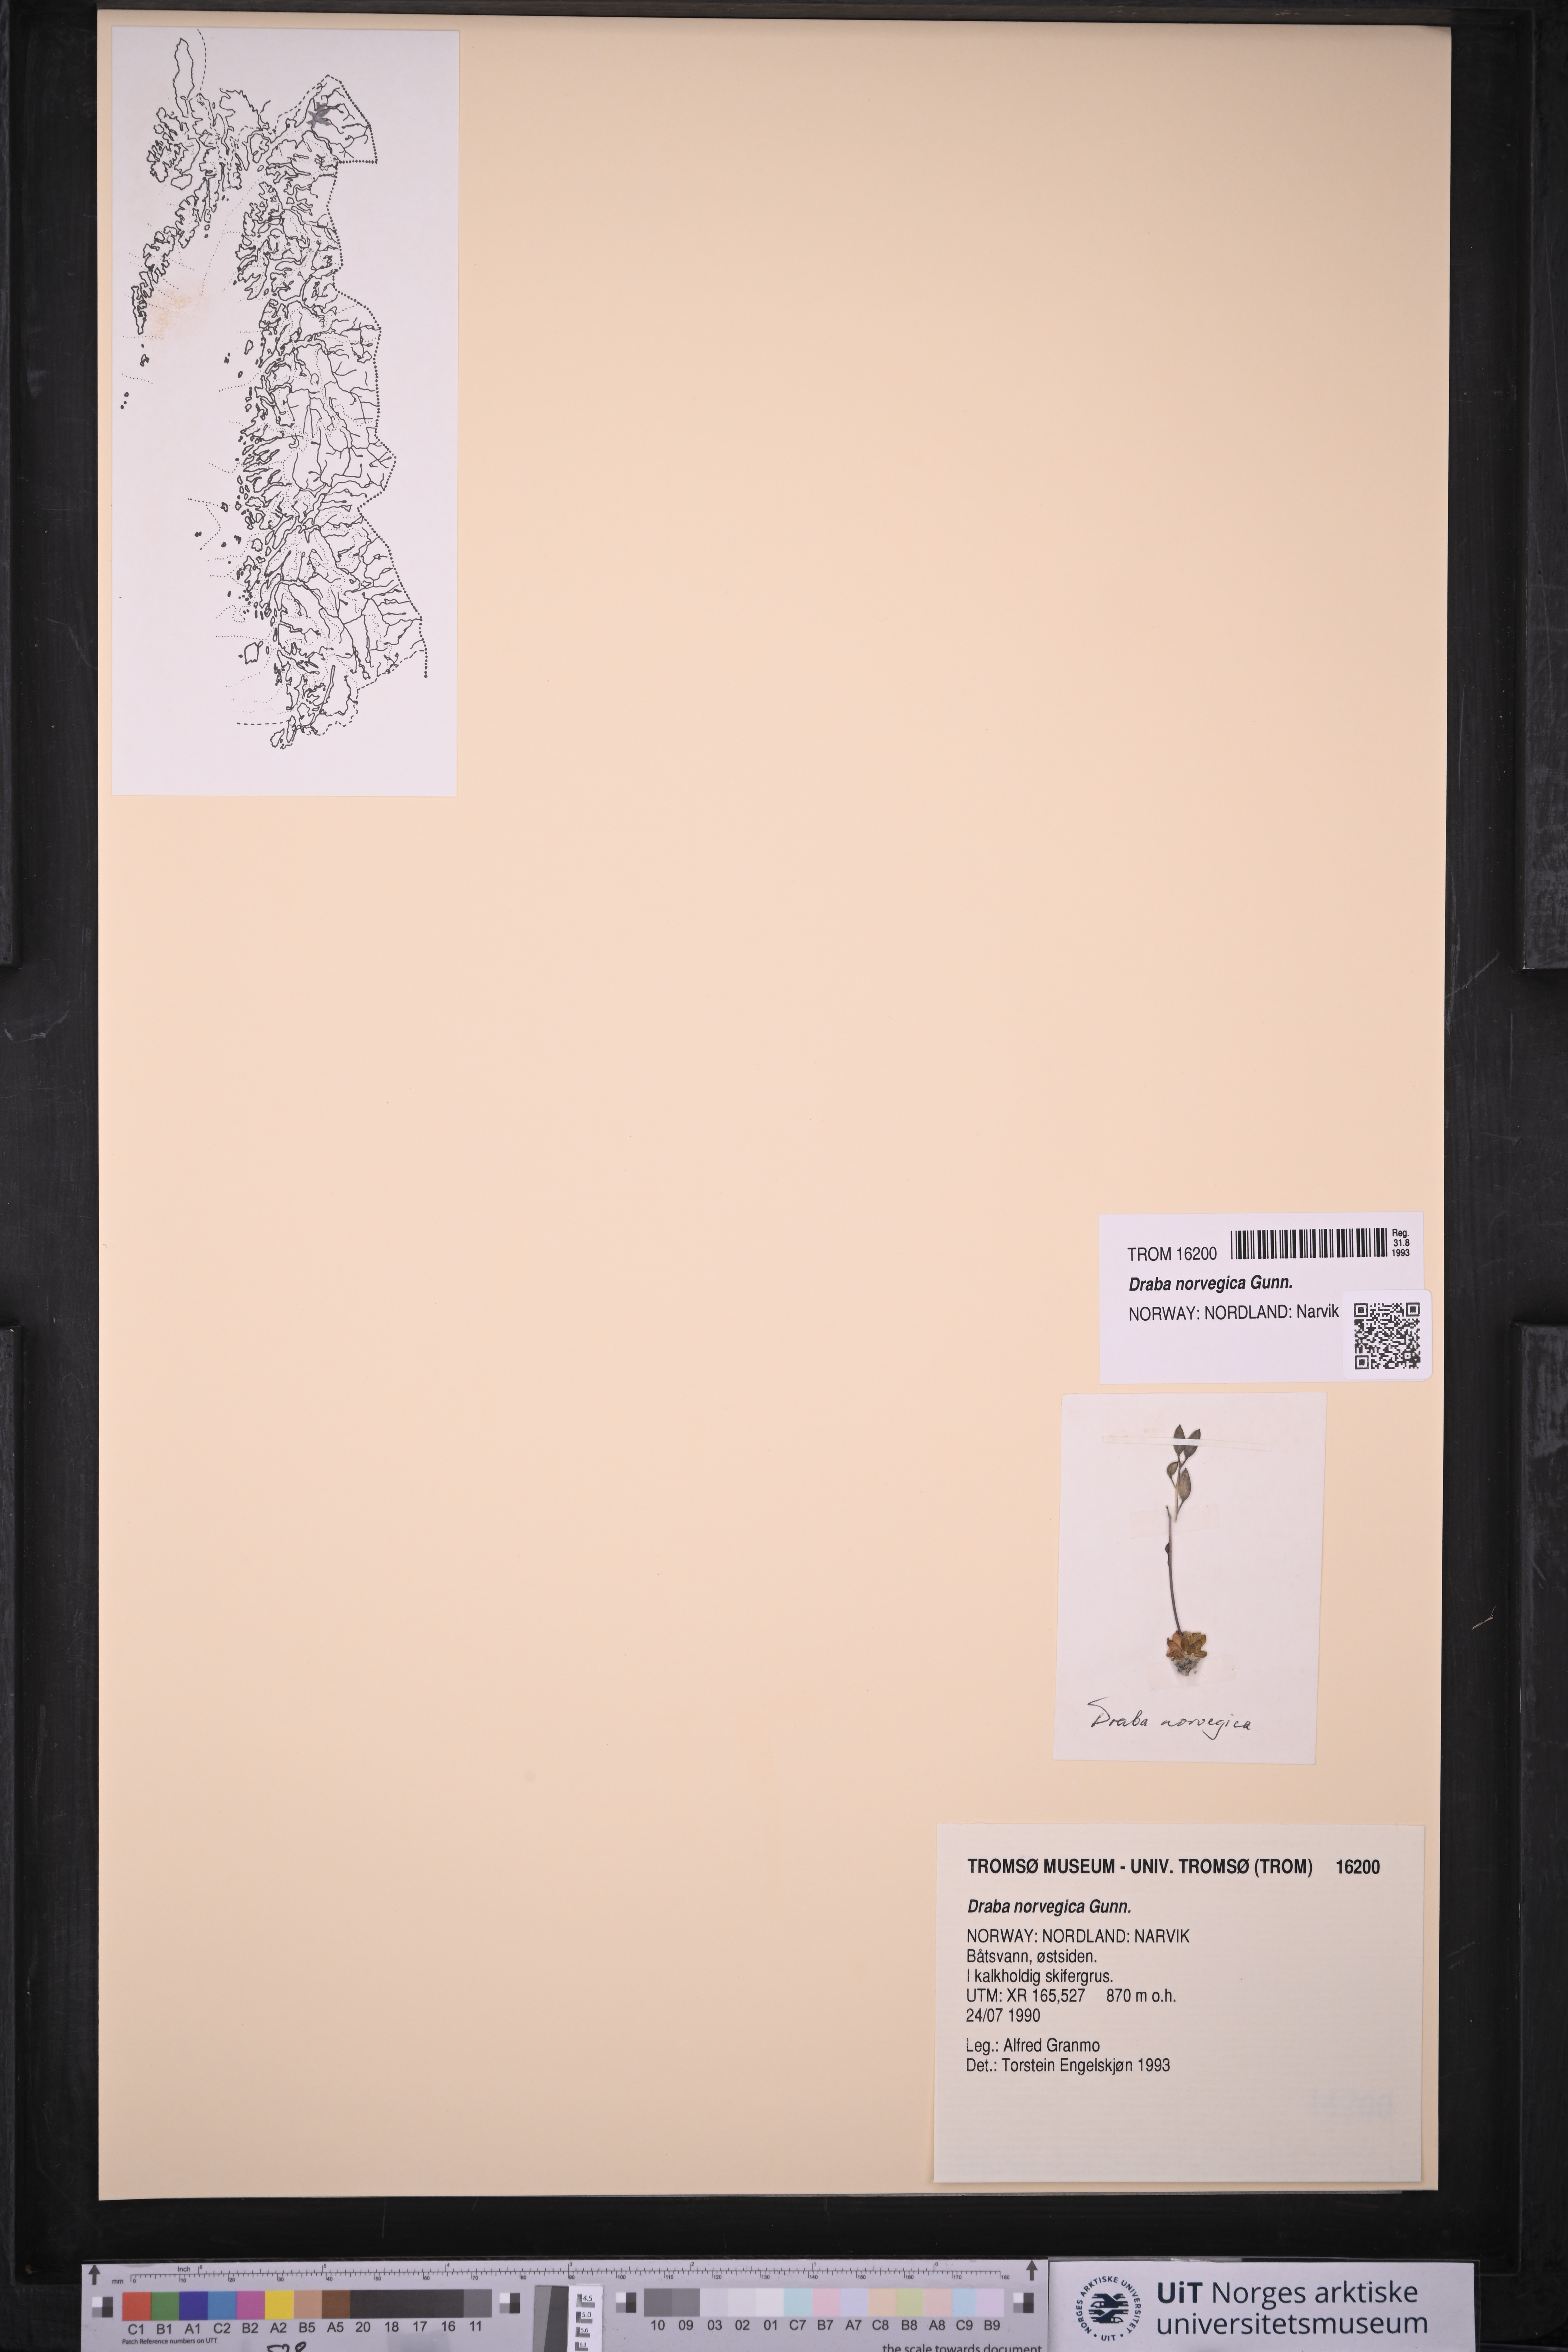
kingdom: Plantae
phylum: Tracheophyta
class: Magnoliopsida
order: Brassicales
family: Brassicaceae
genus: Draba
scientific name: Draba norvegica
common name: Rock whitlowgrass
